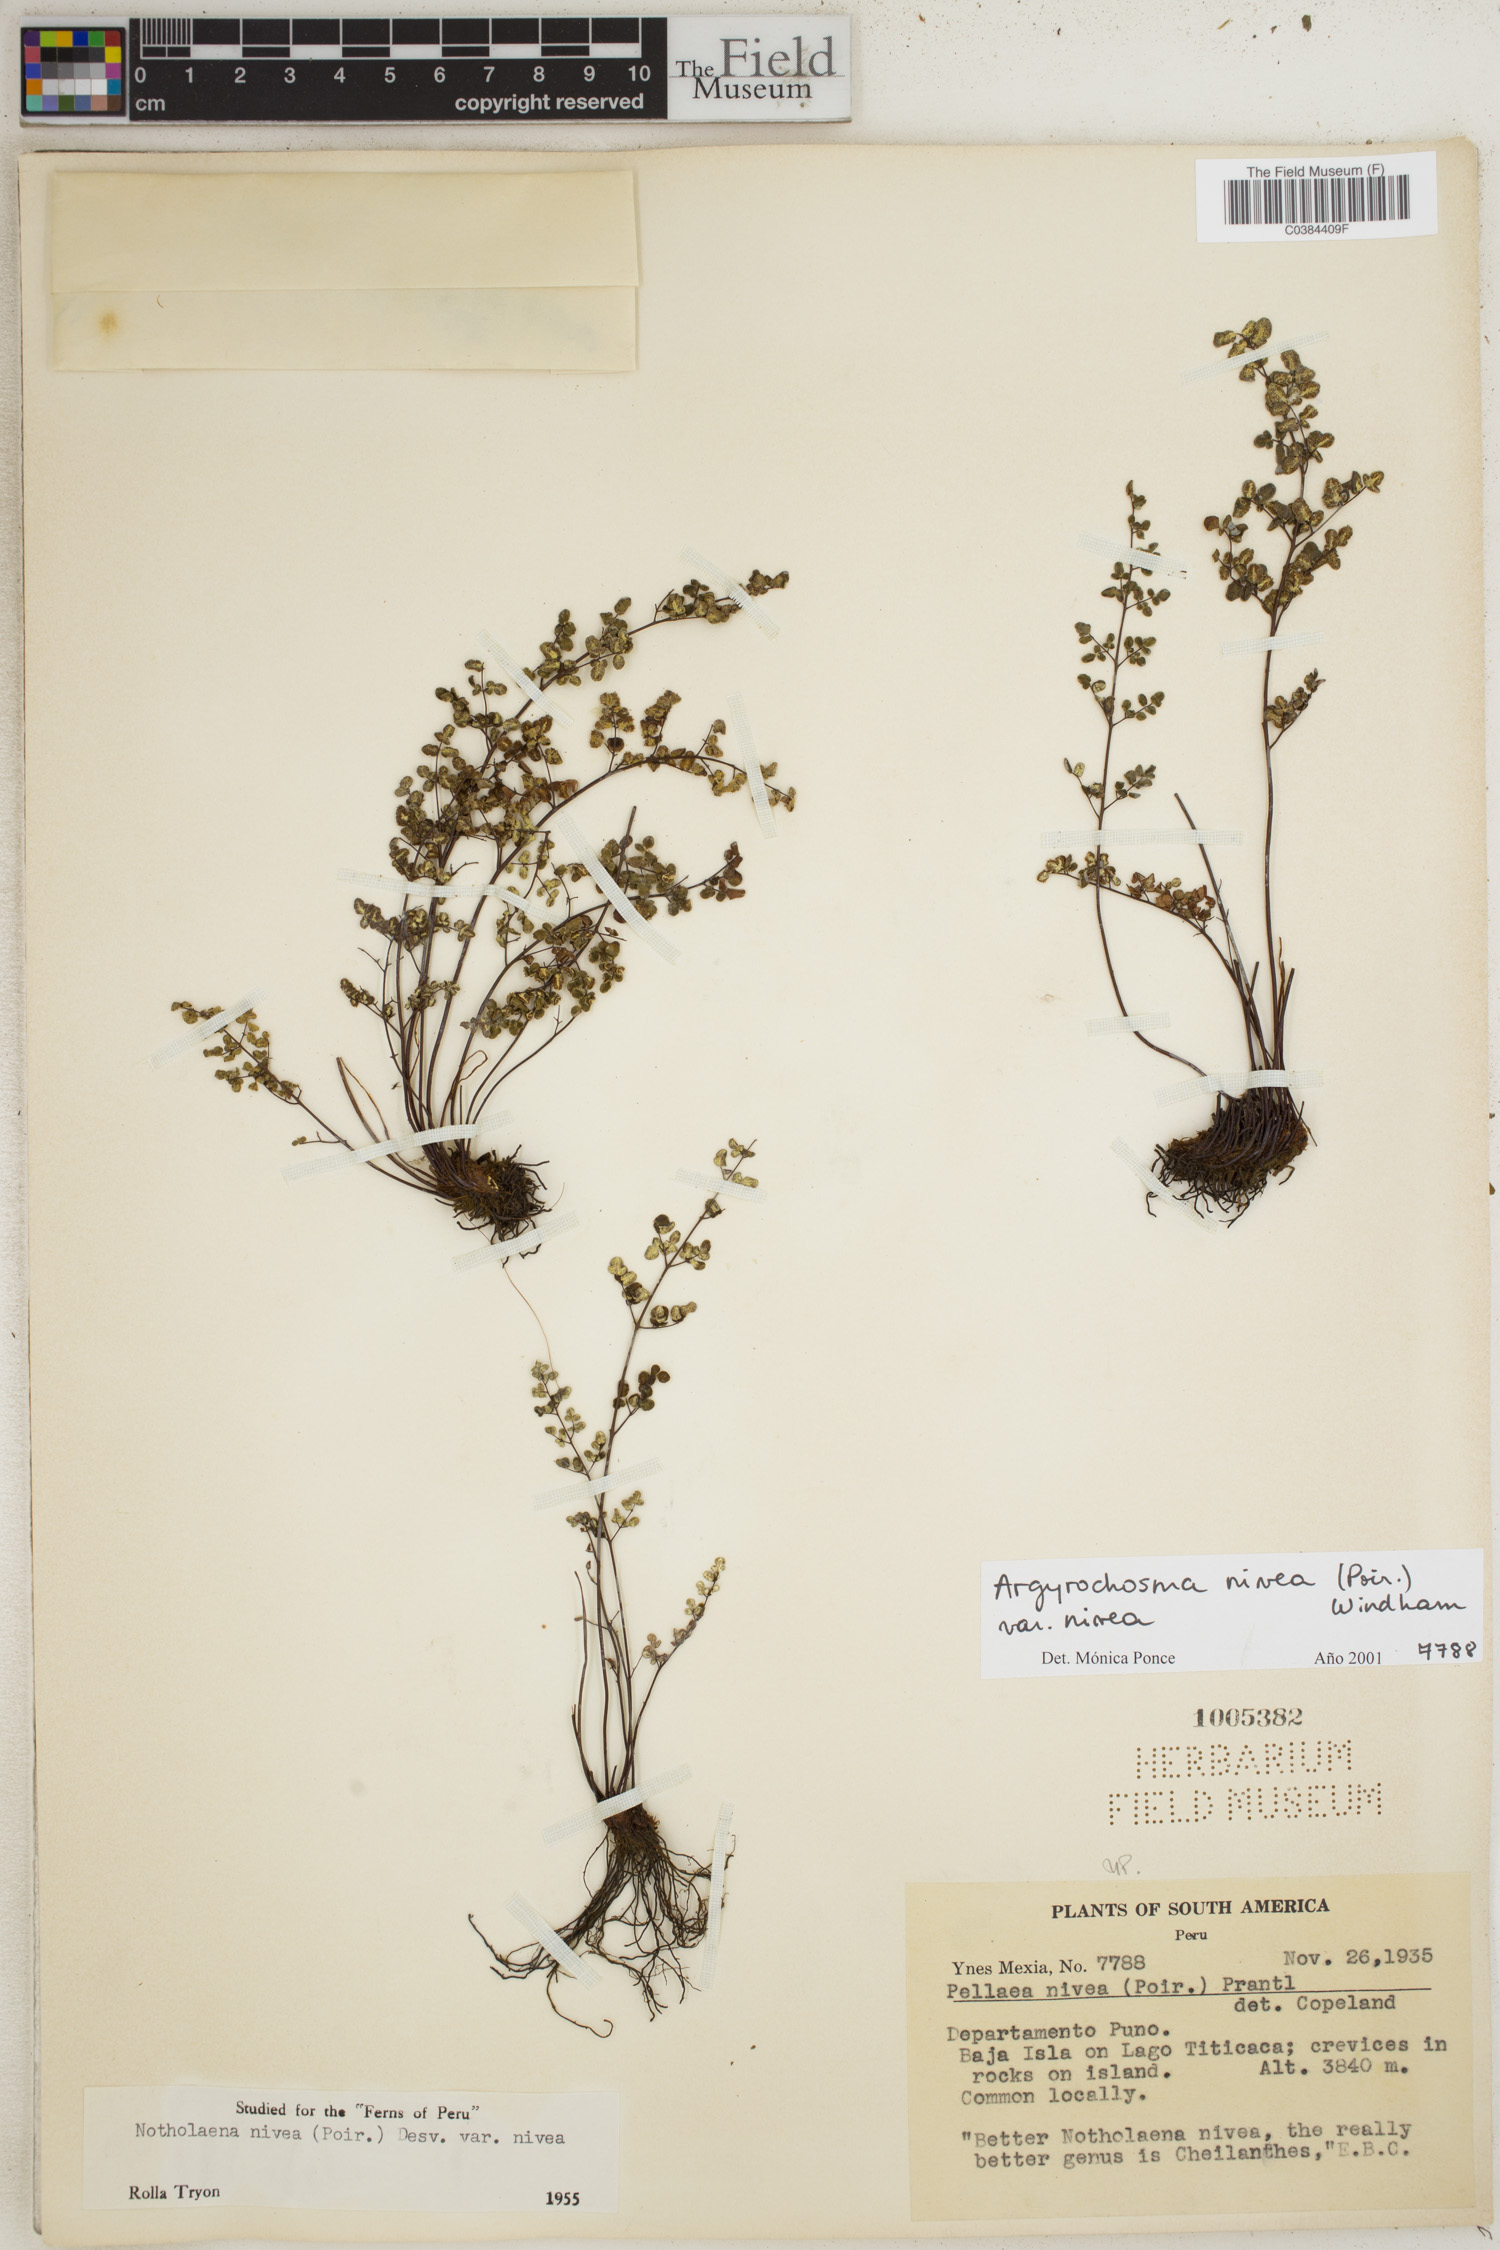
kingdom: Plantae
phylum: Tracheophyta
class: Polypodiopsida
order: Polypodiales
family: Pteridaceae
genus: Argyrochosma
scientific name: Argyrochosma nivea
